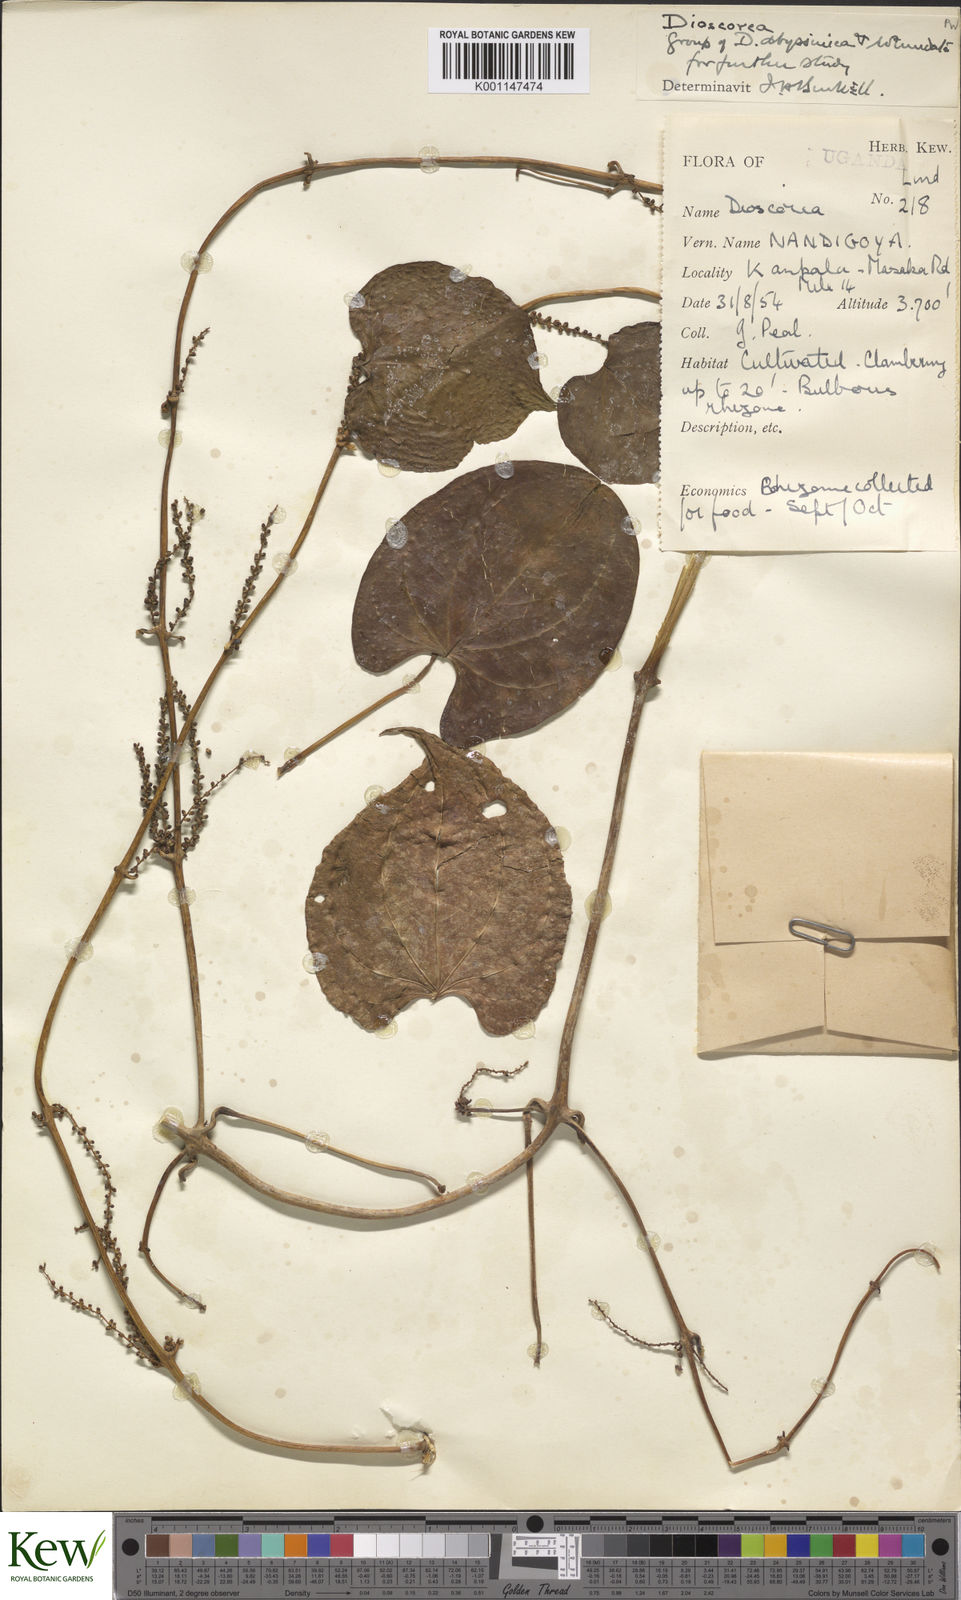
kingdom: Plantae
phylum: Tracheophyta
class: Liliopsida
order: Dioscoreales
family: Dioscoreaceae
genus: Dioscorea
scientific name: Dioscorea
